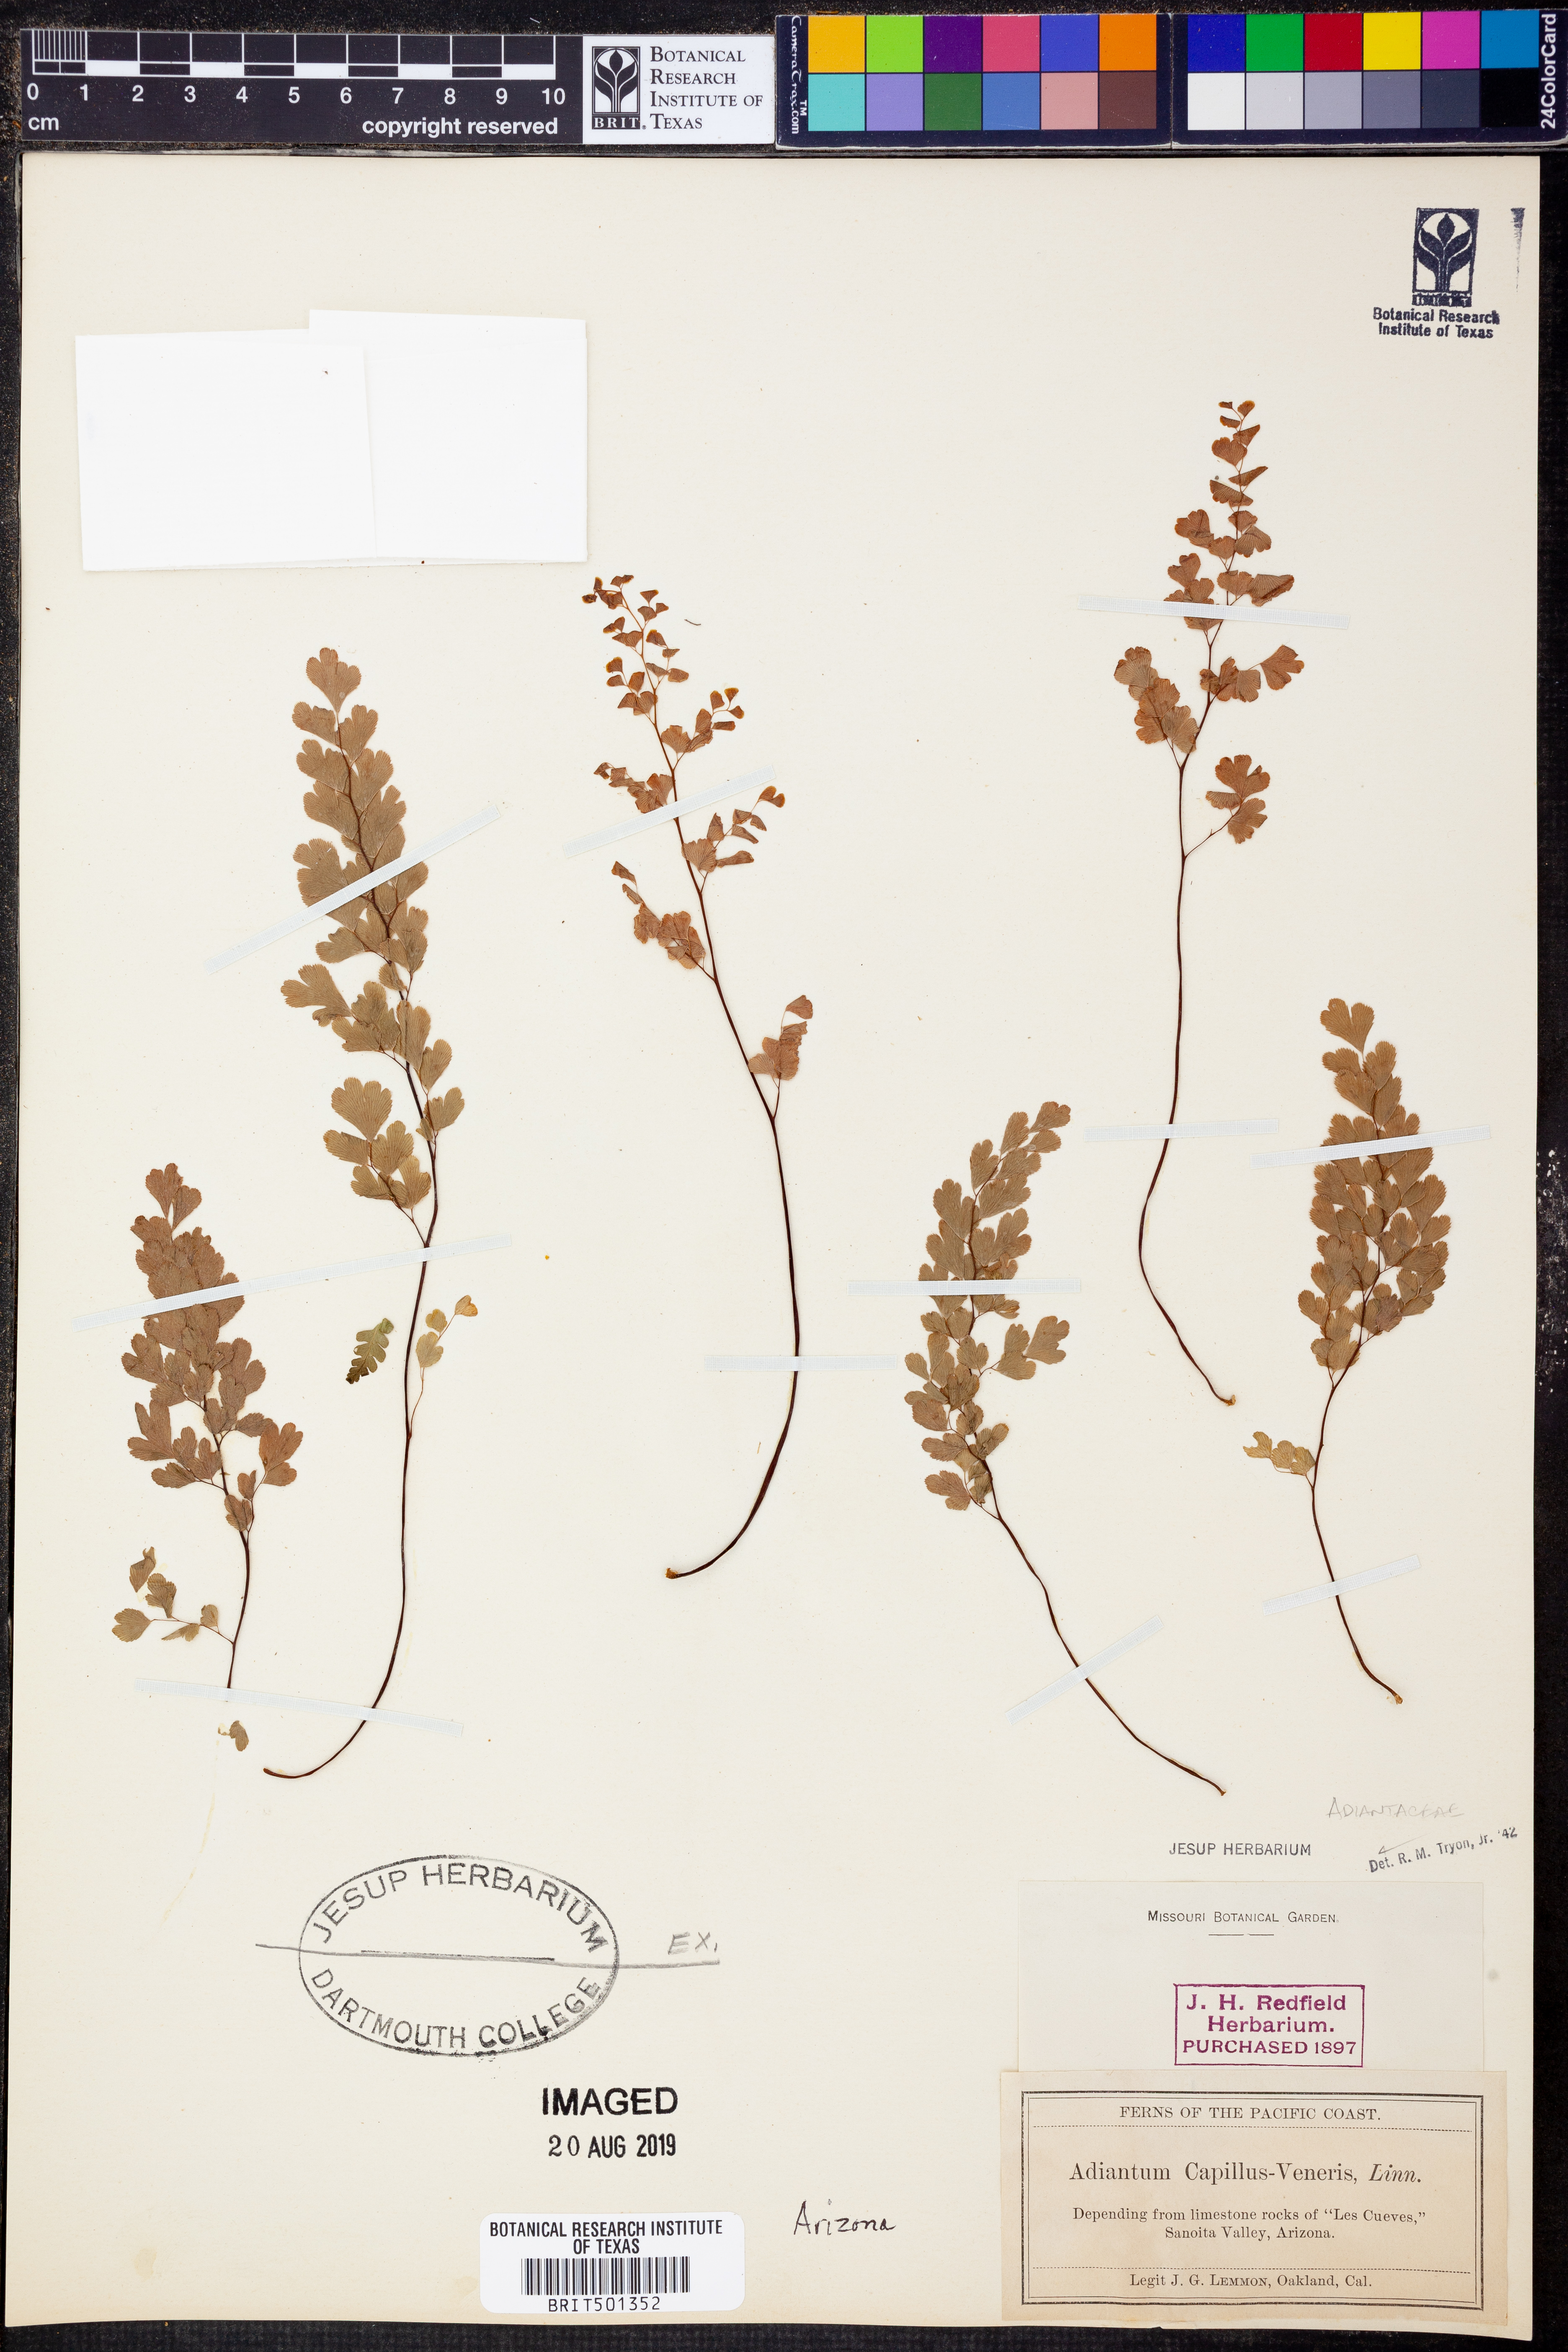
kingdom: Plantae
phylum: Tracheophyta
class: Polypodiopsida
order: Polypodiales
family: Pteridaceae
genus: Adiantum
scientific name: Adiantum capillus-veneris
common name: Maidenhair fern
